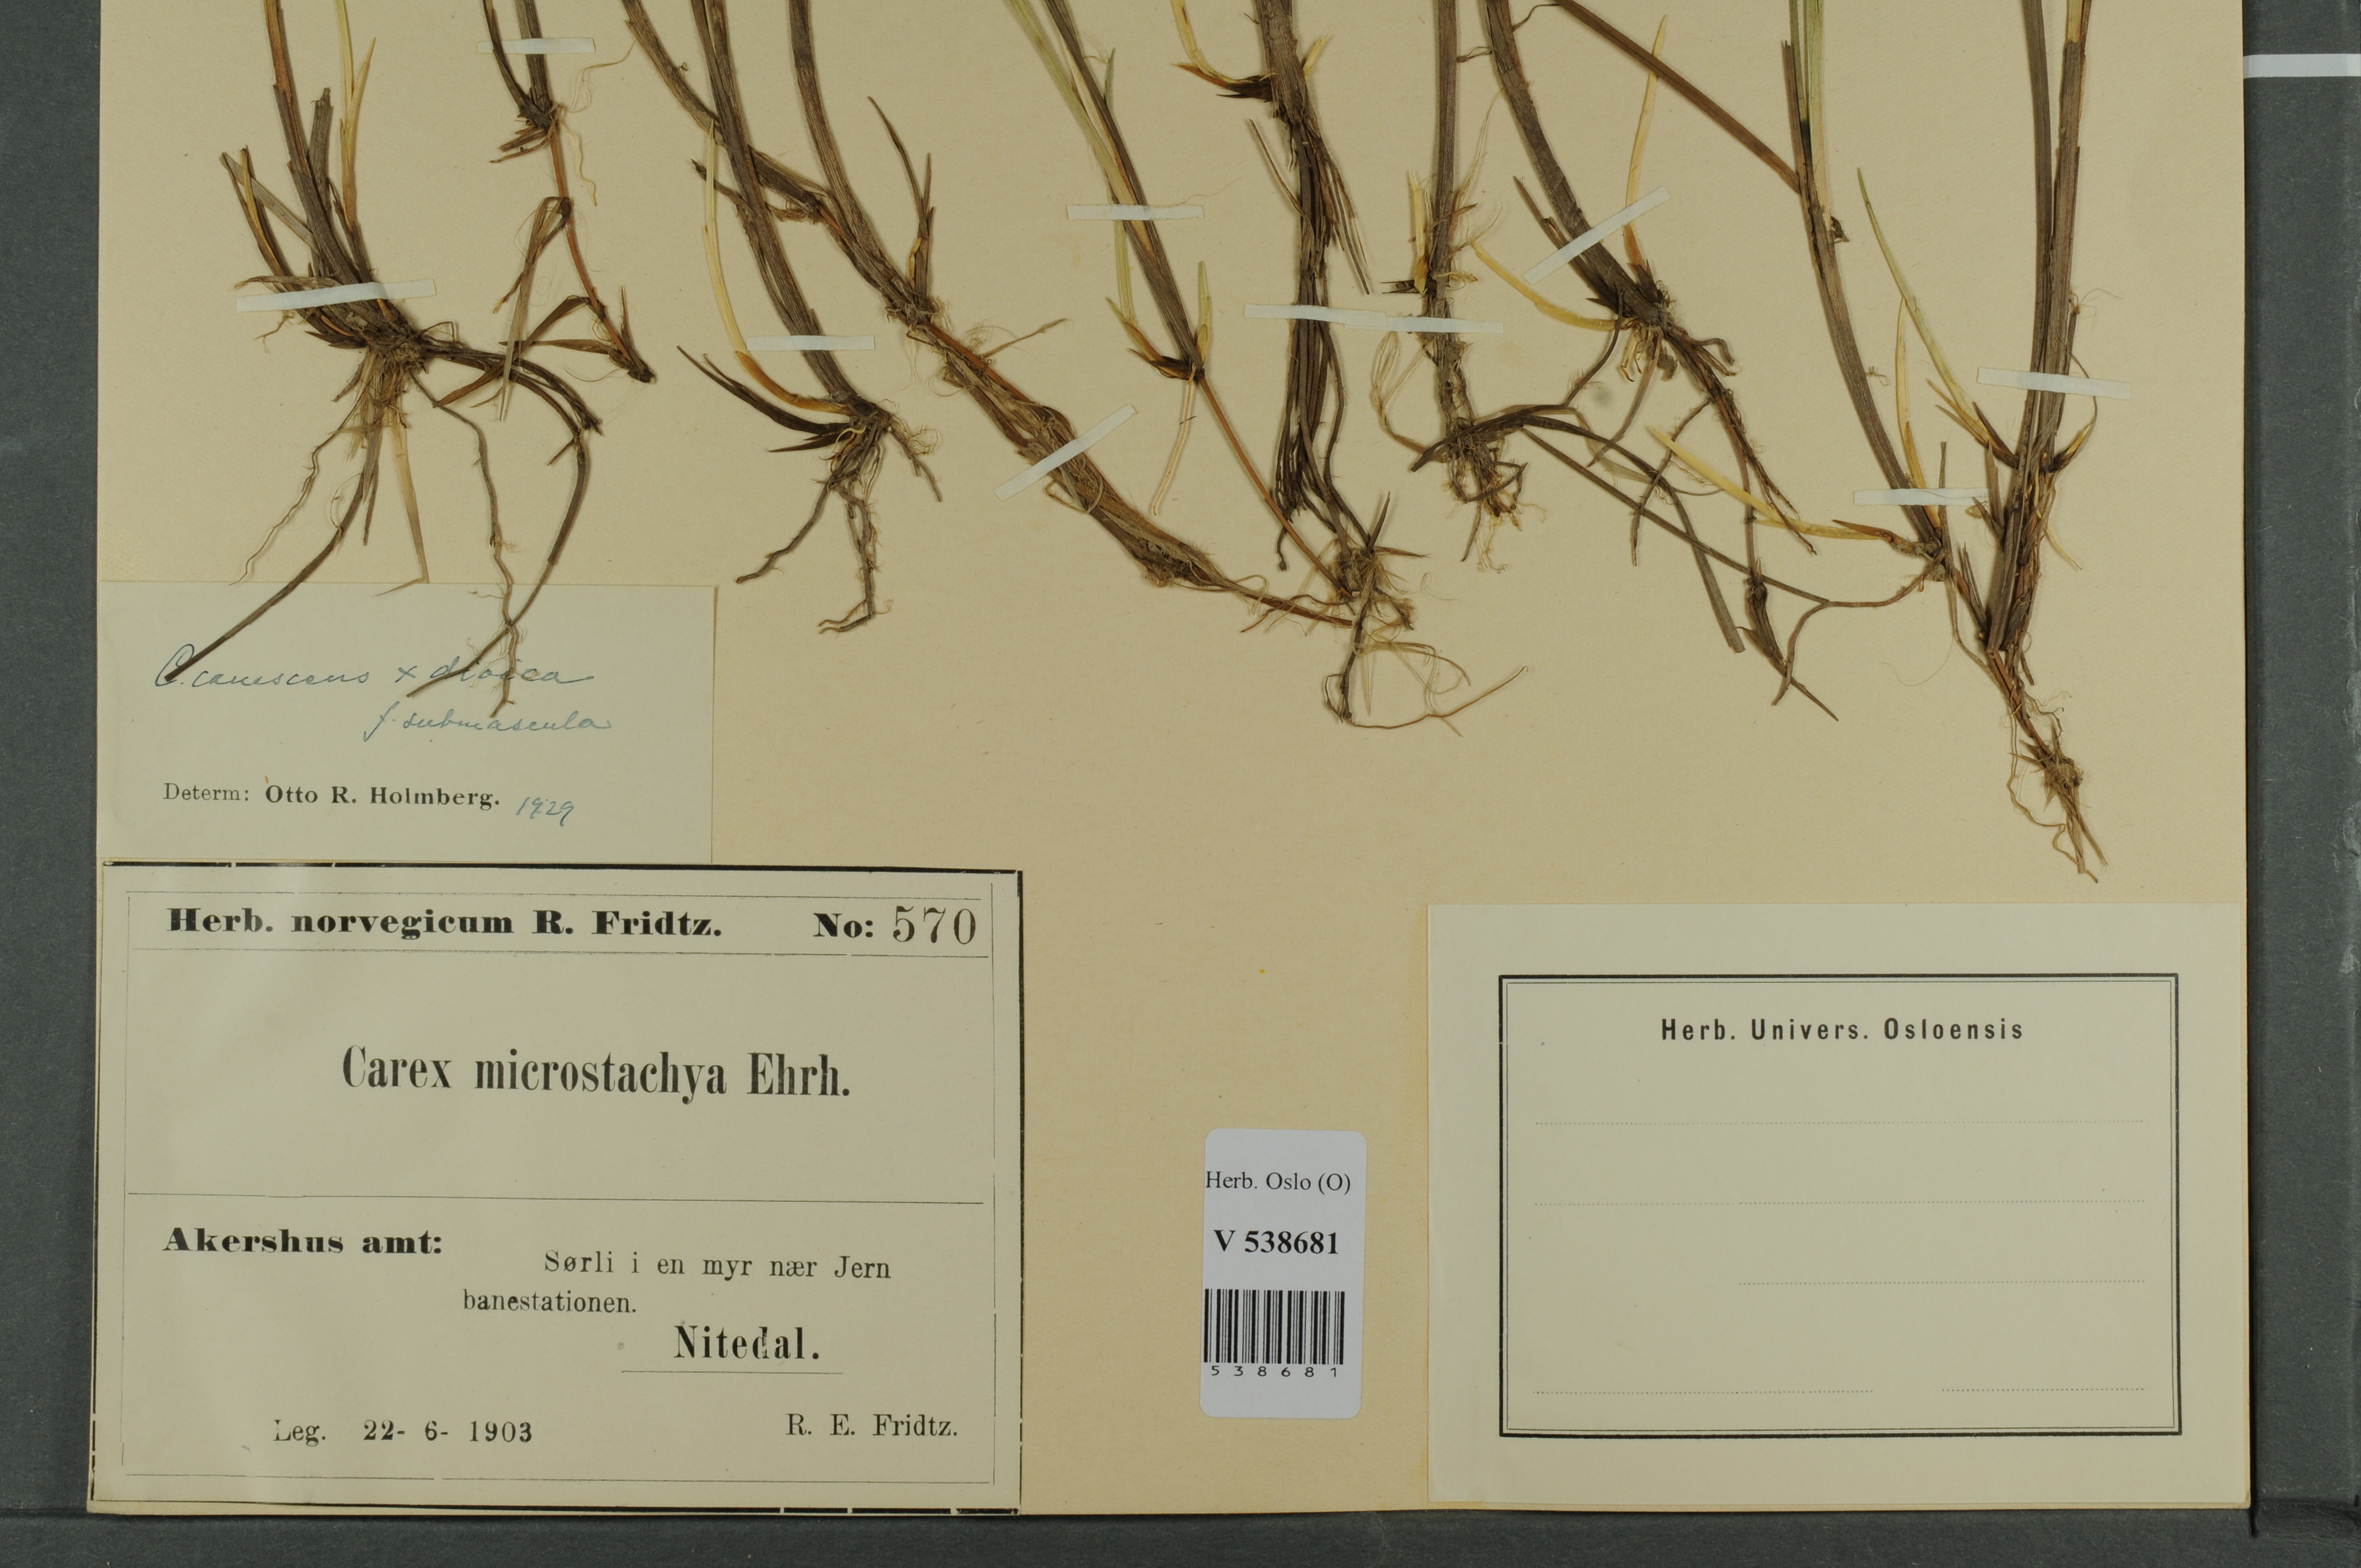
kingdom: Plantae
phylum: Tracheophyta
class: Liliopsida
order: Poales
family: Cyperaceae
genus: Carex
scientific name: Carex
